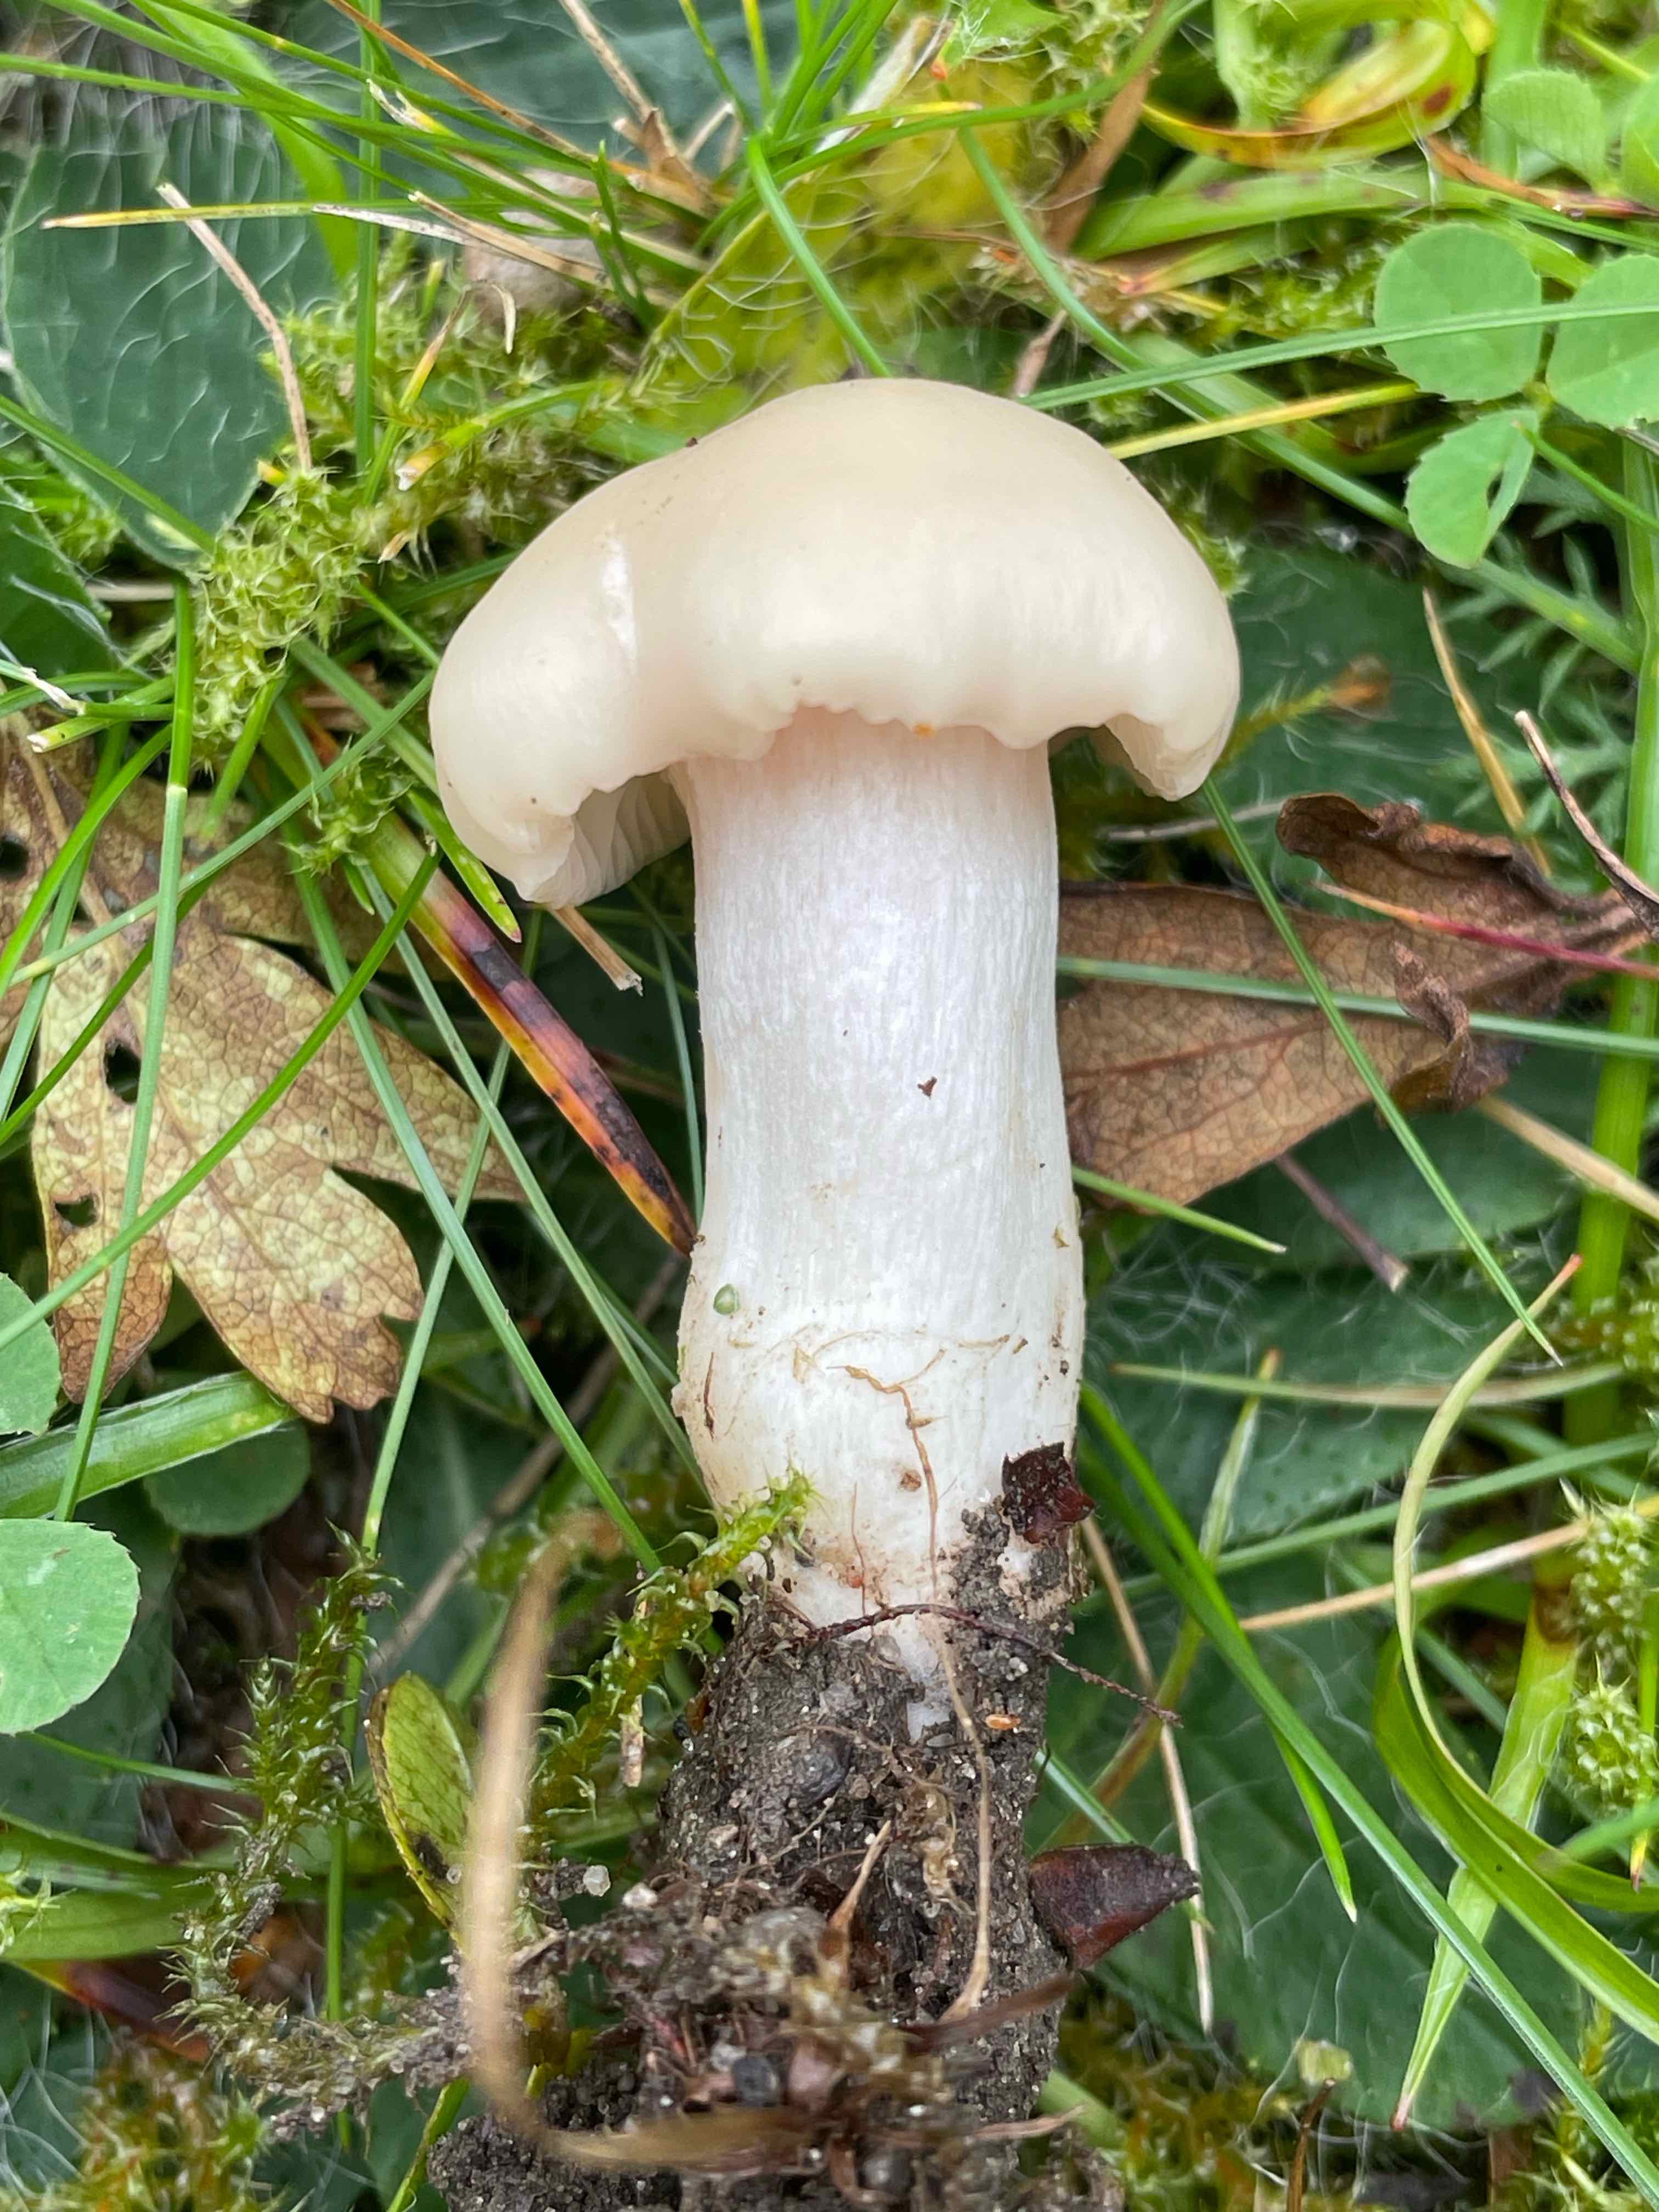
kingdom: Fungi
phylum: Basidiomycota
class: Agaricomycetes
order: Agaricales
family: Hygrophoraceae
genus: Cuphophyllus
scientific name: Cuphophyllus
